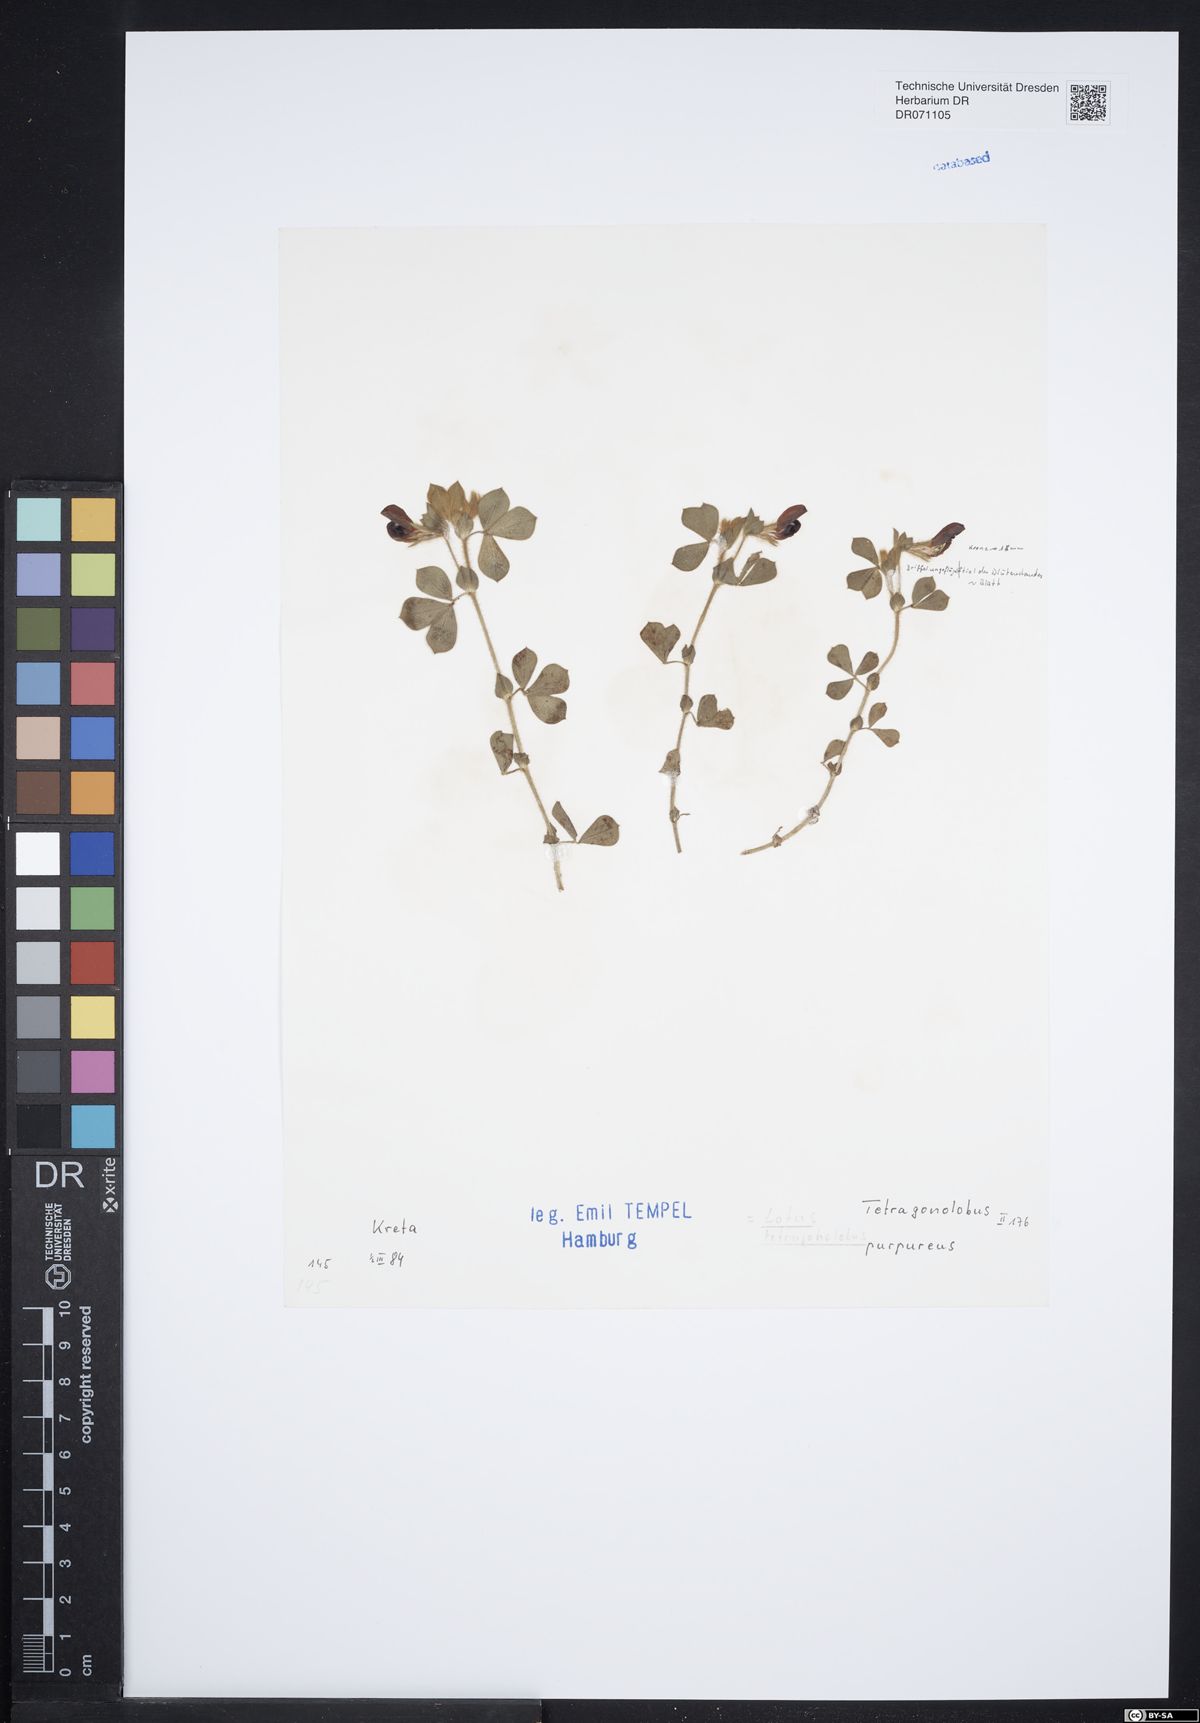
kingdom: Plantae
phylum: Tracheophyta
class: Magnoliopsida
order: Ranunculales
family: Ranunculaceae
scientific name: Ranunculaceae
